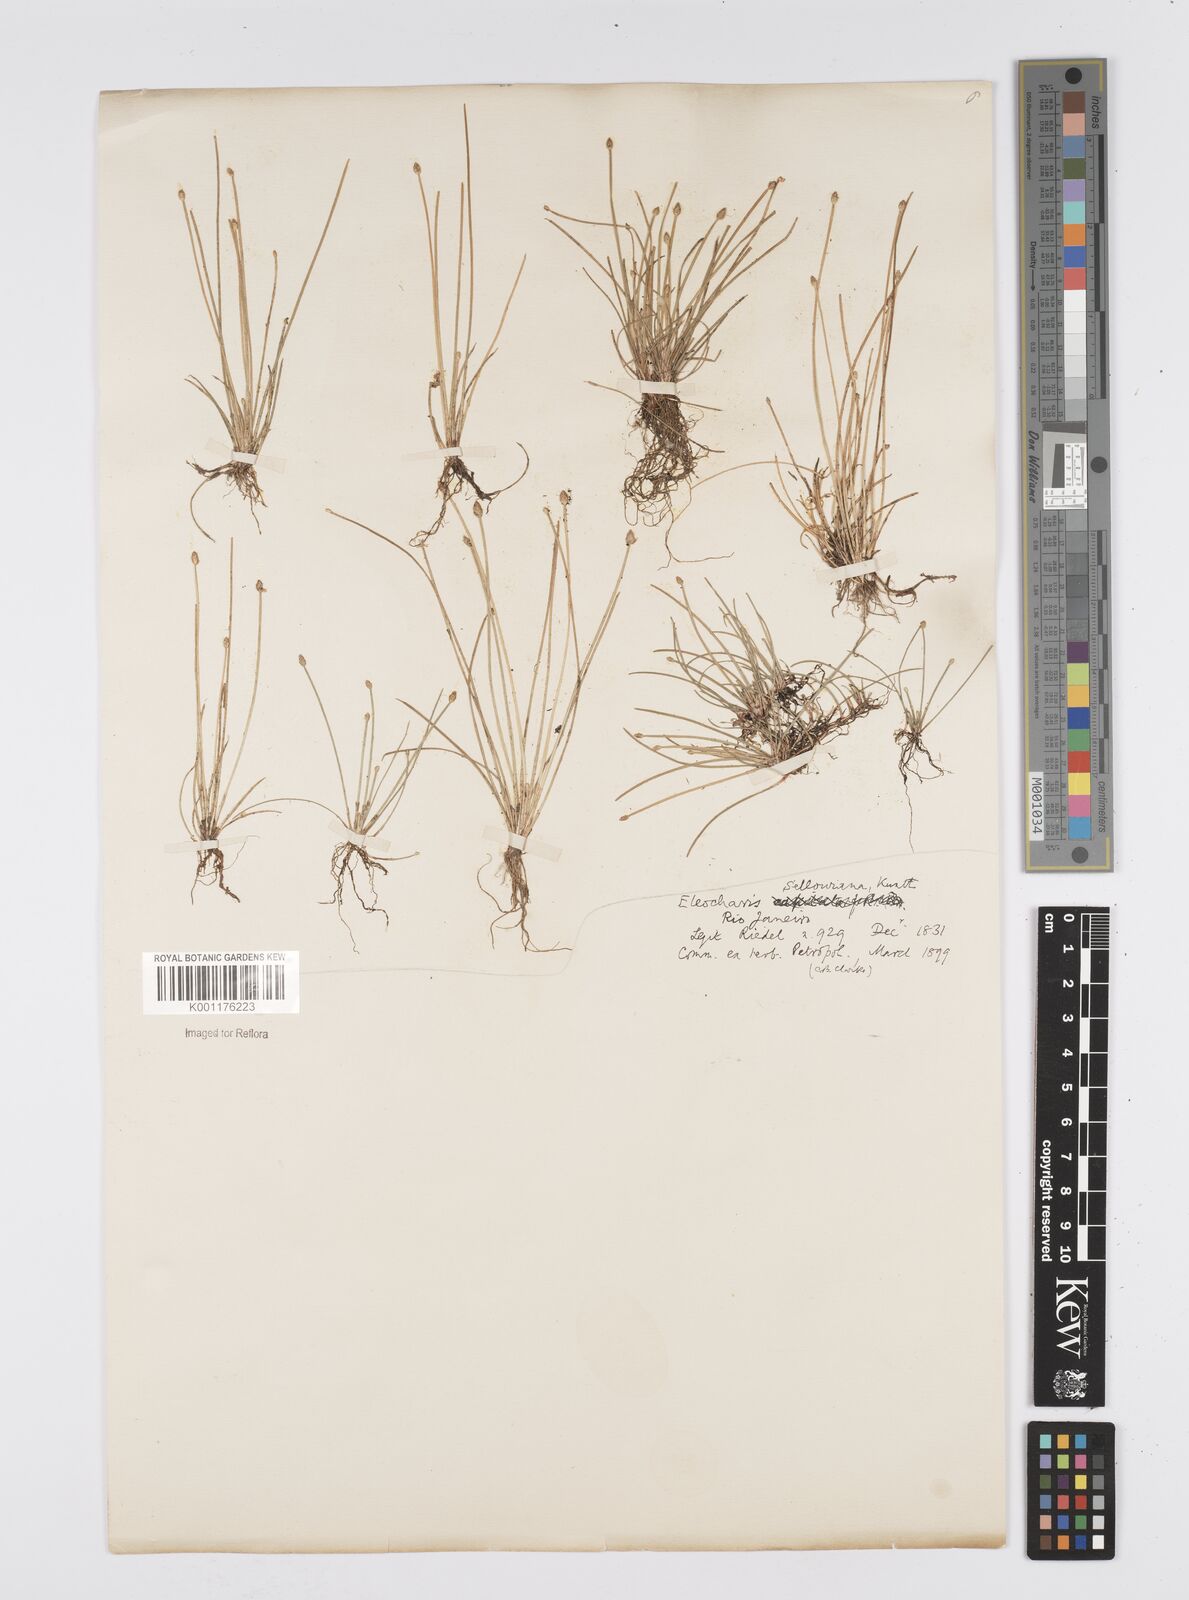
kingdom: Plantae
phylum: Tracheophyta
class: Liliopsida
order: Poales
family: Cyperaceae
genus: Eleocharis
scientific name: Eleocharis sellowiana
